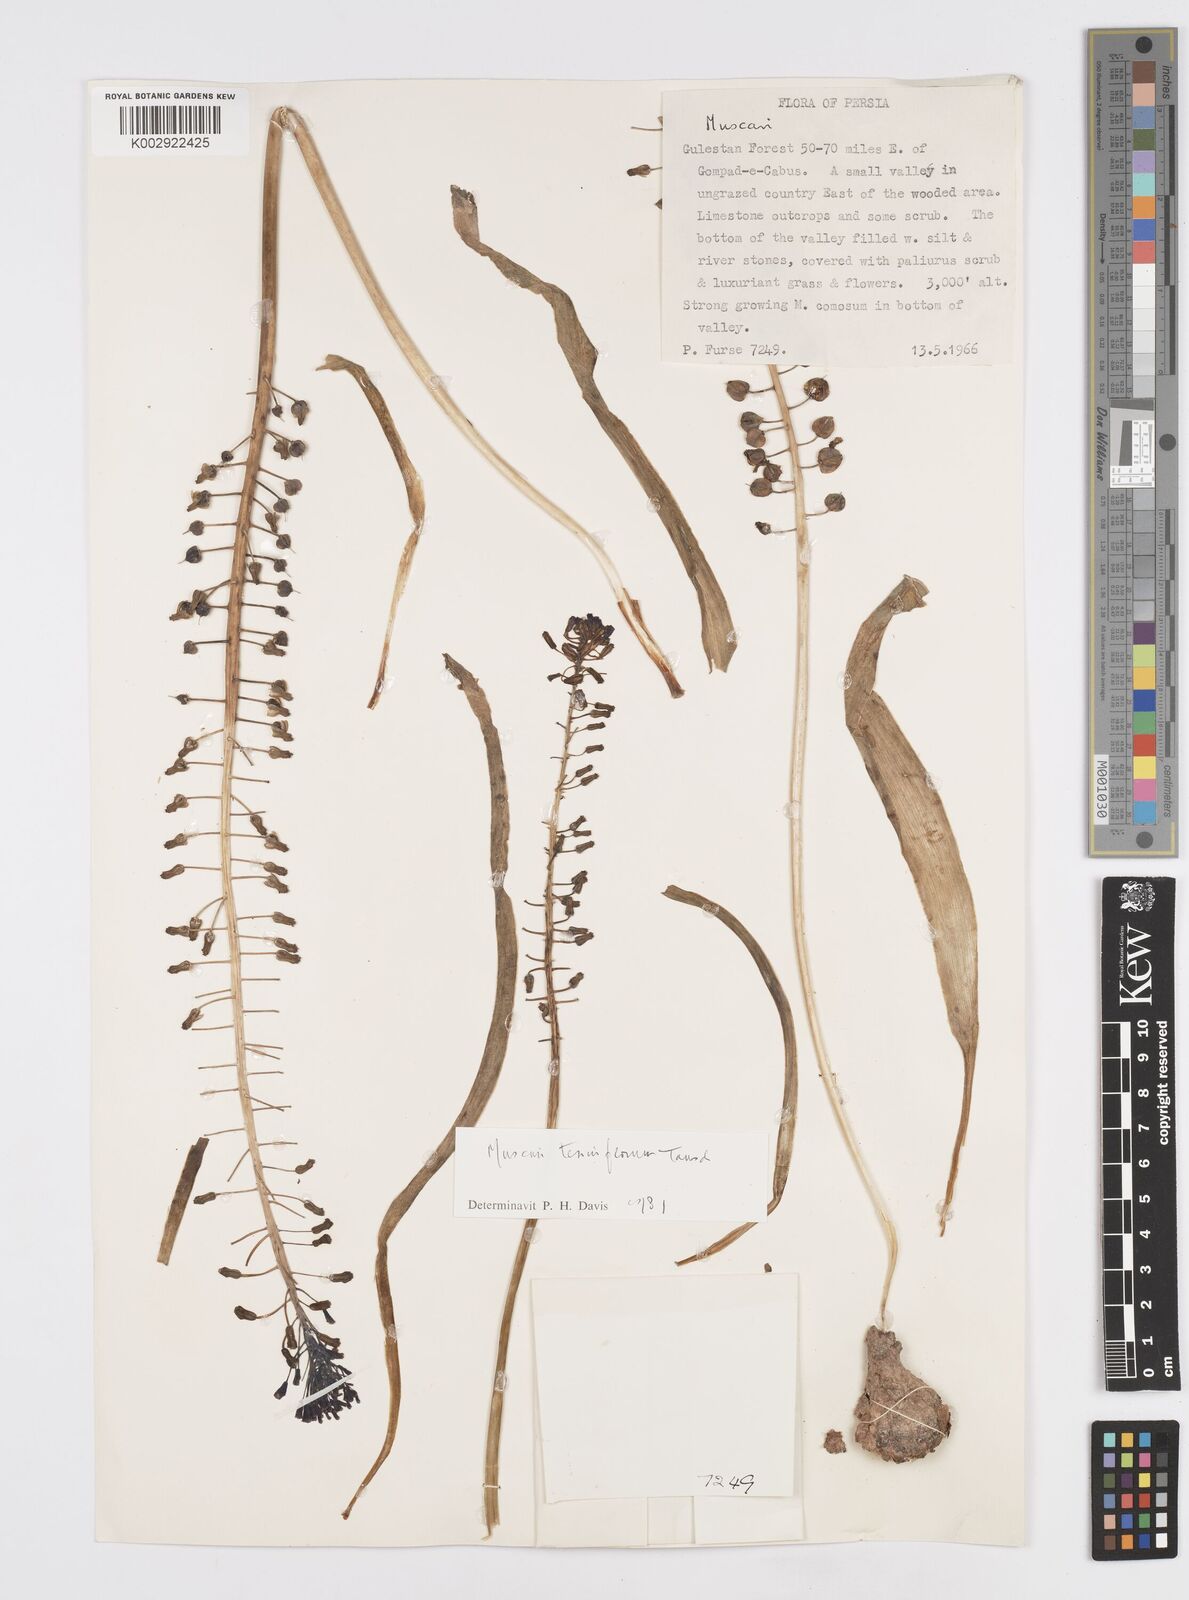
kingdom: Plantae
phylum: Tracheophyta
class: Liliopsida
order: Asparagales
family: Asparagaceae
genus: Muscari
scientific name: Muscari tenuiflorum
